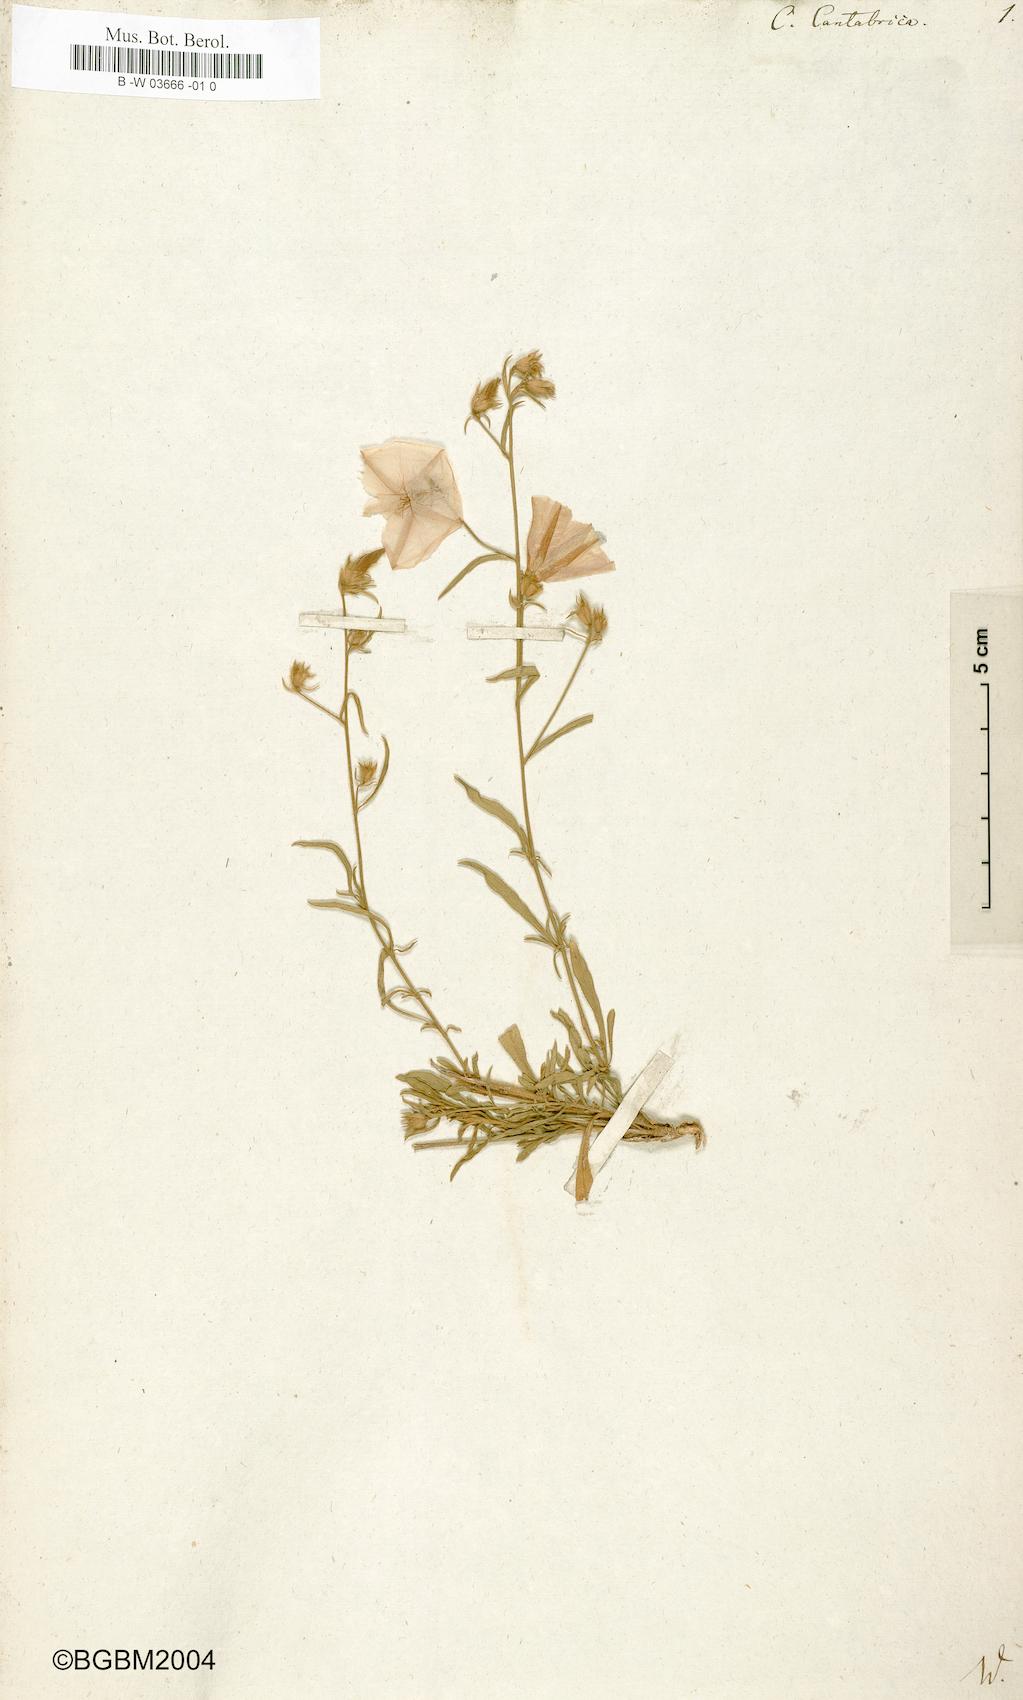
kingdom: Plantae
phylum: Tracheophyta
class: Magnoliopsida
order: Solanales
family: Convolvulaceae
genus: Convolvulus
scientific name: Convolvulus cantabrica
